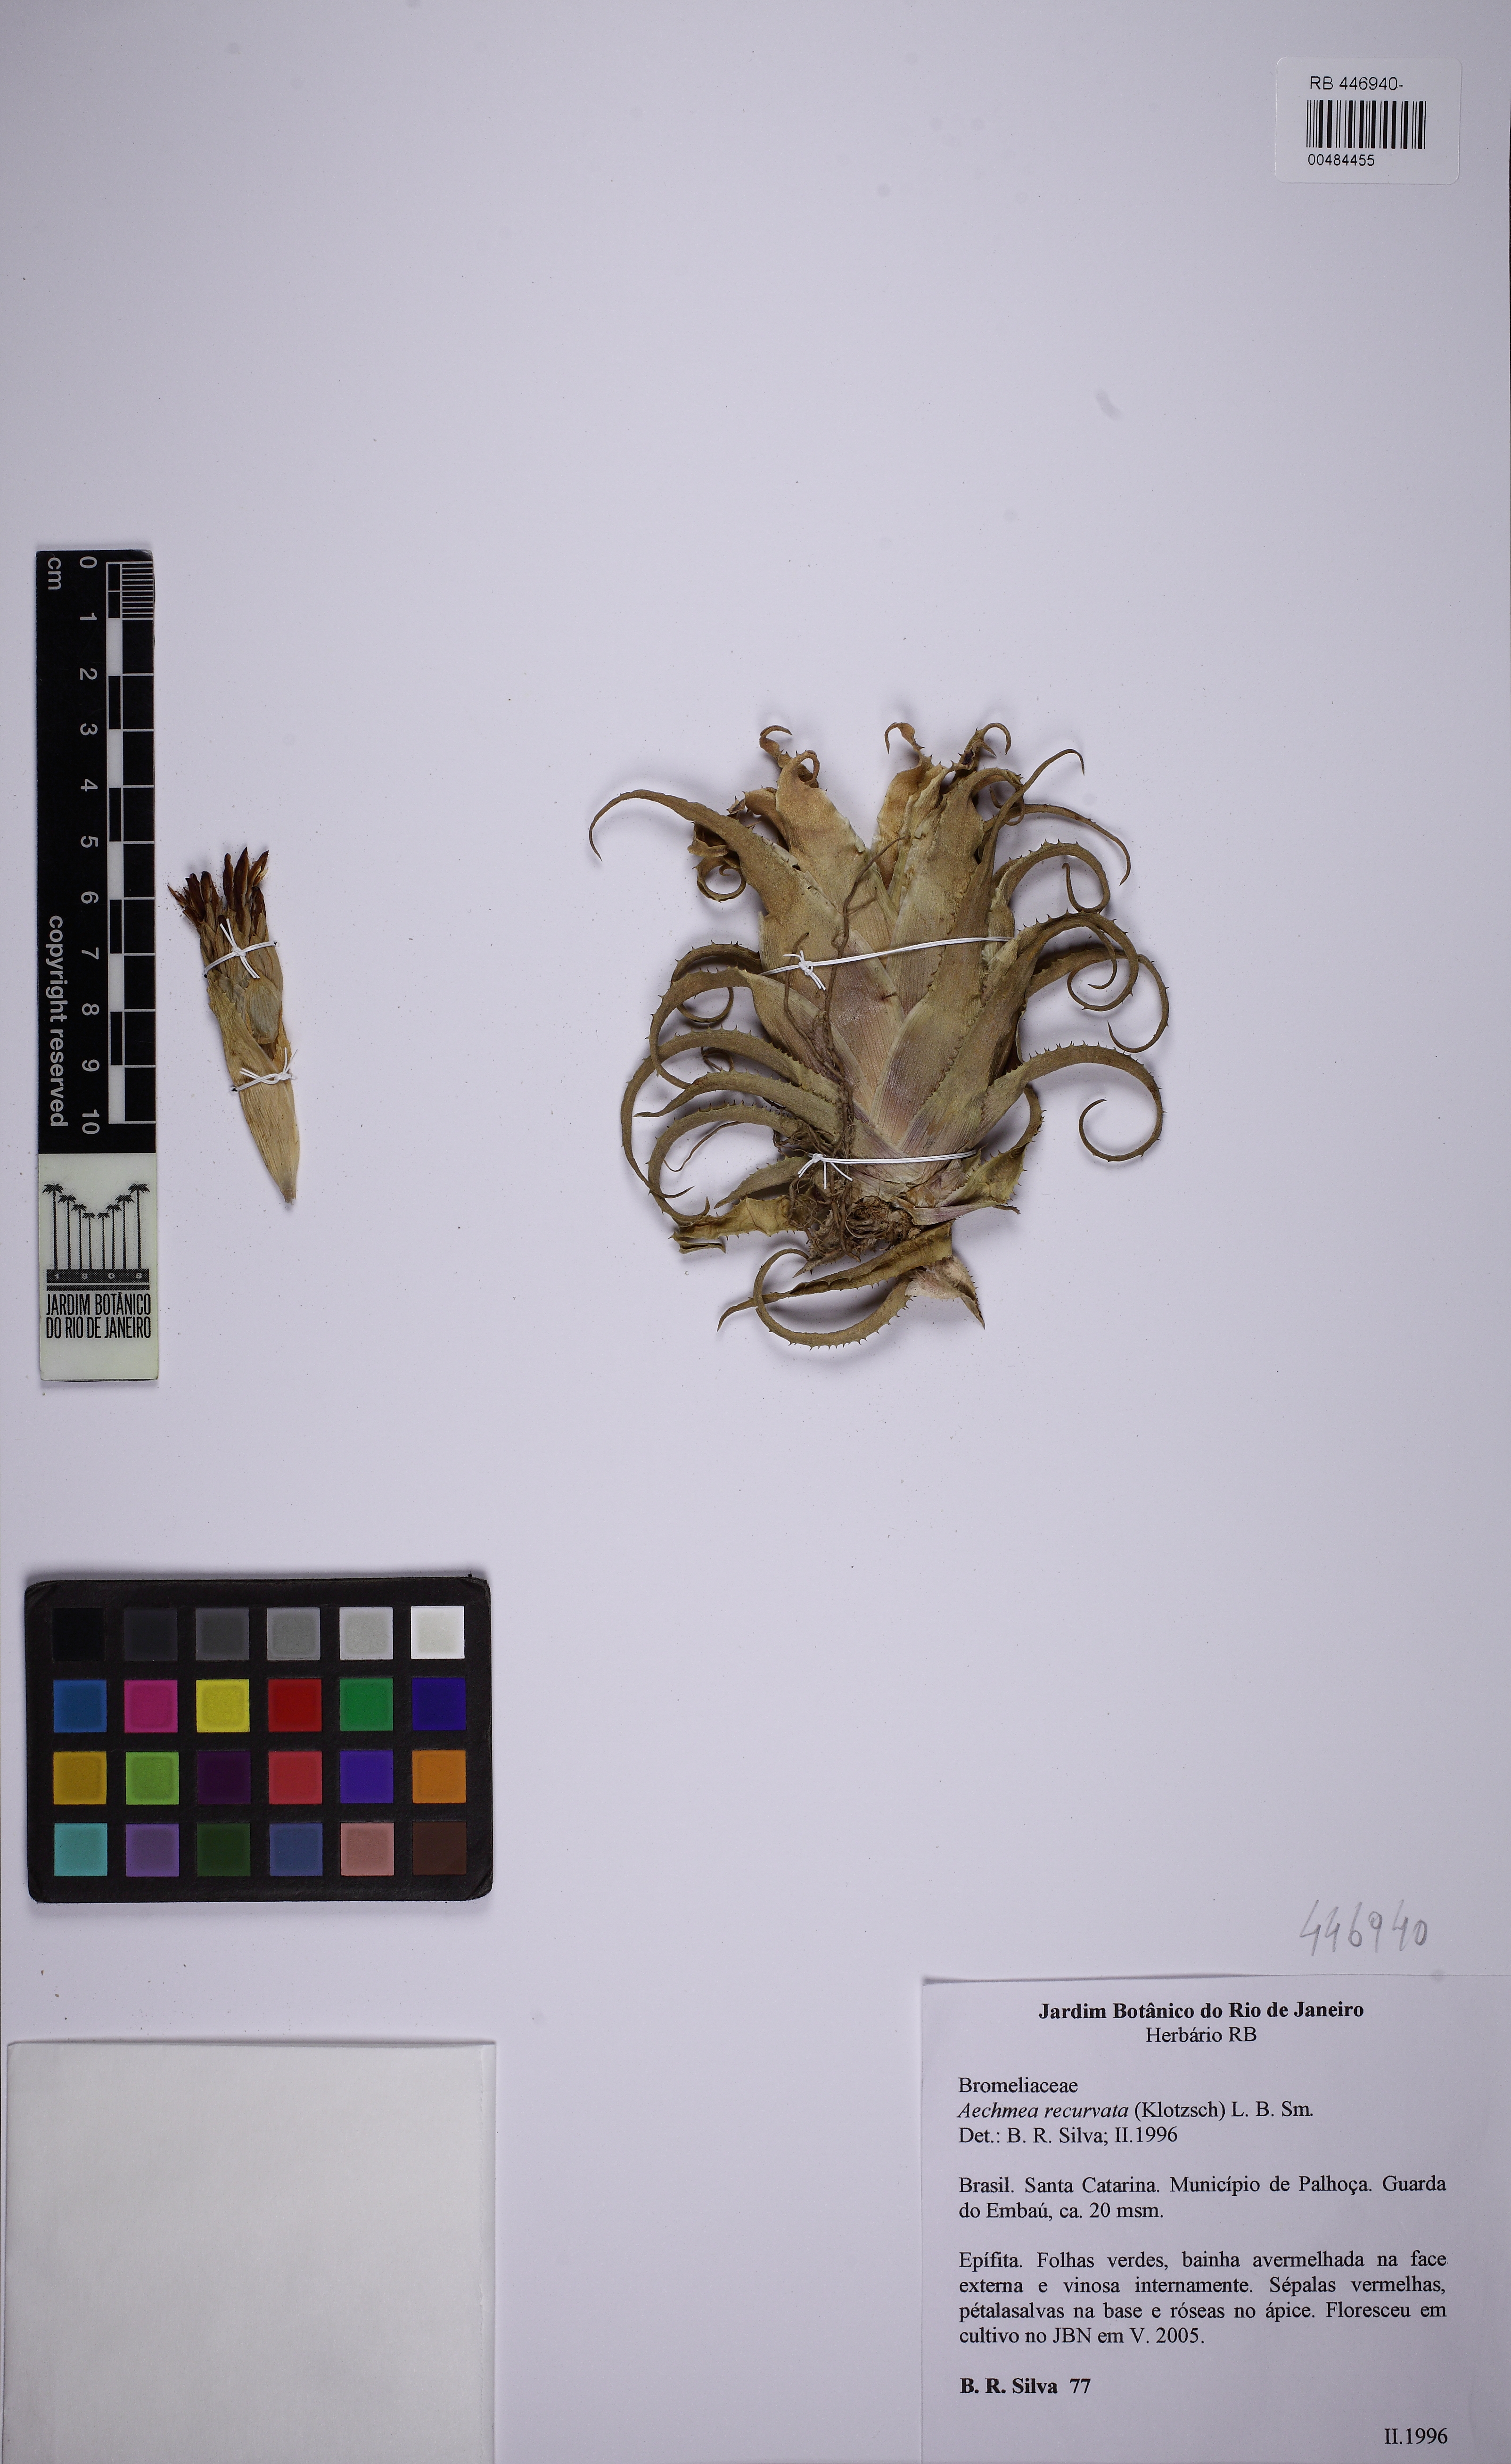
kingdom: Plantae
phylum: Tracheophyta
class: Liliopsida
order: Poales
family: Bromeliaceae
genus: Aechmea
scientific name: Aechmea recurvata
